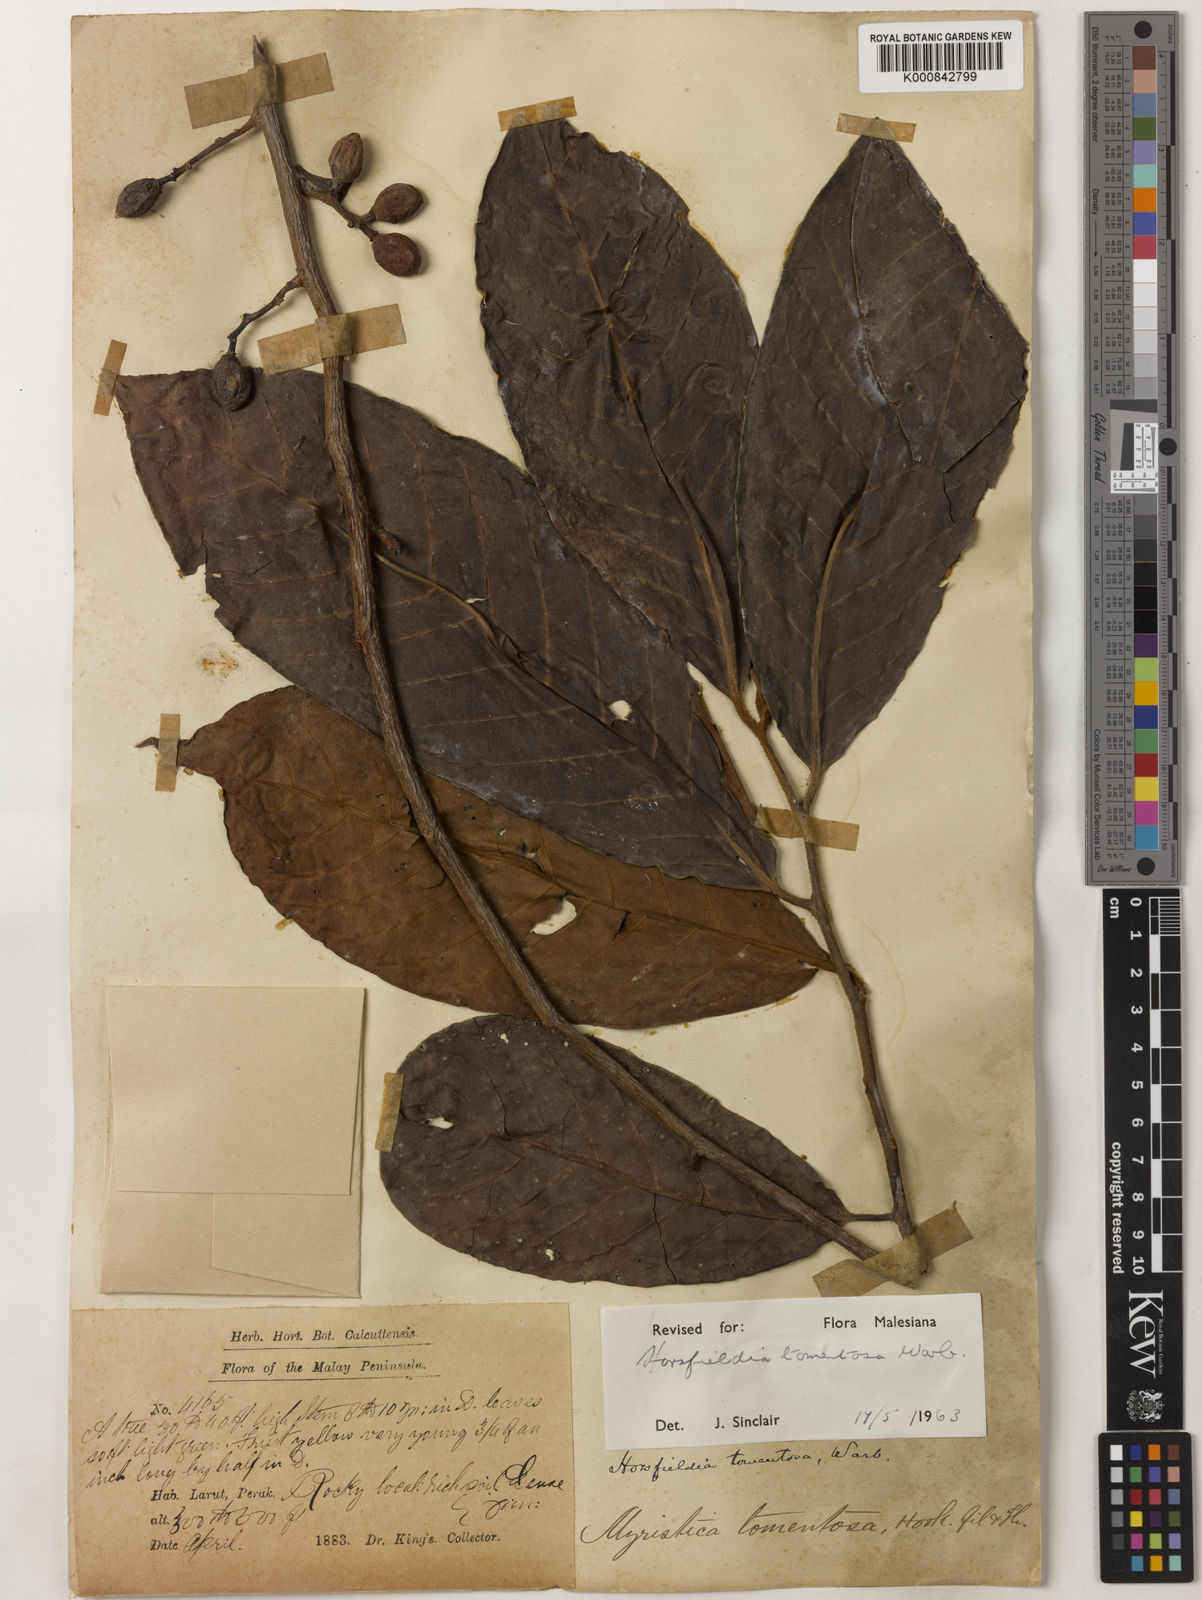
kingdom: Plantae
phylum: Tracheophyta
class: Magnoliopsida
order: Magnoliales
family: Myristicaceae
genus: Horsfieldia
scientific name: Horsfieldia tomentosa
